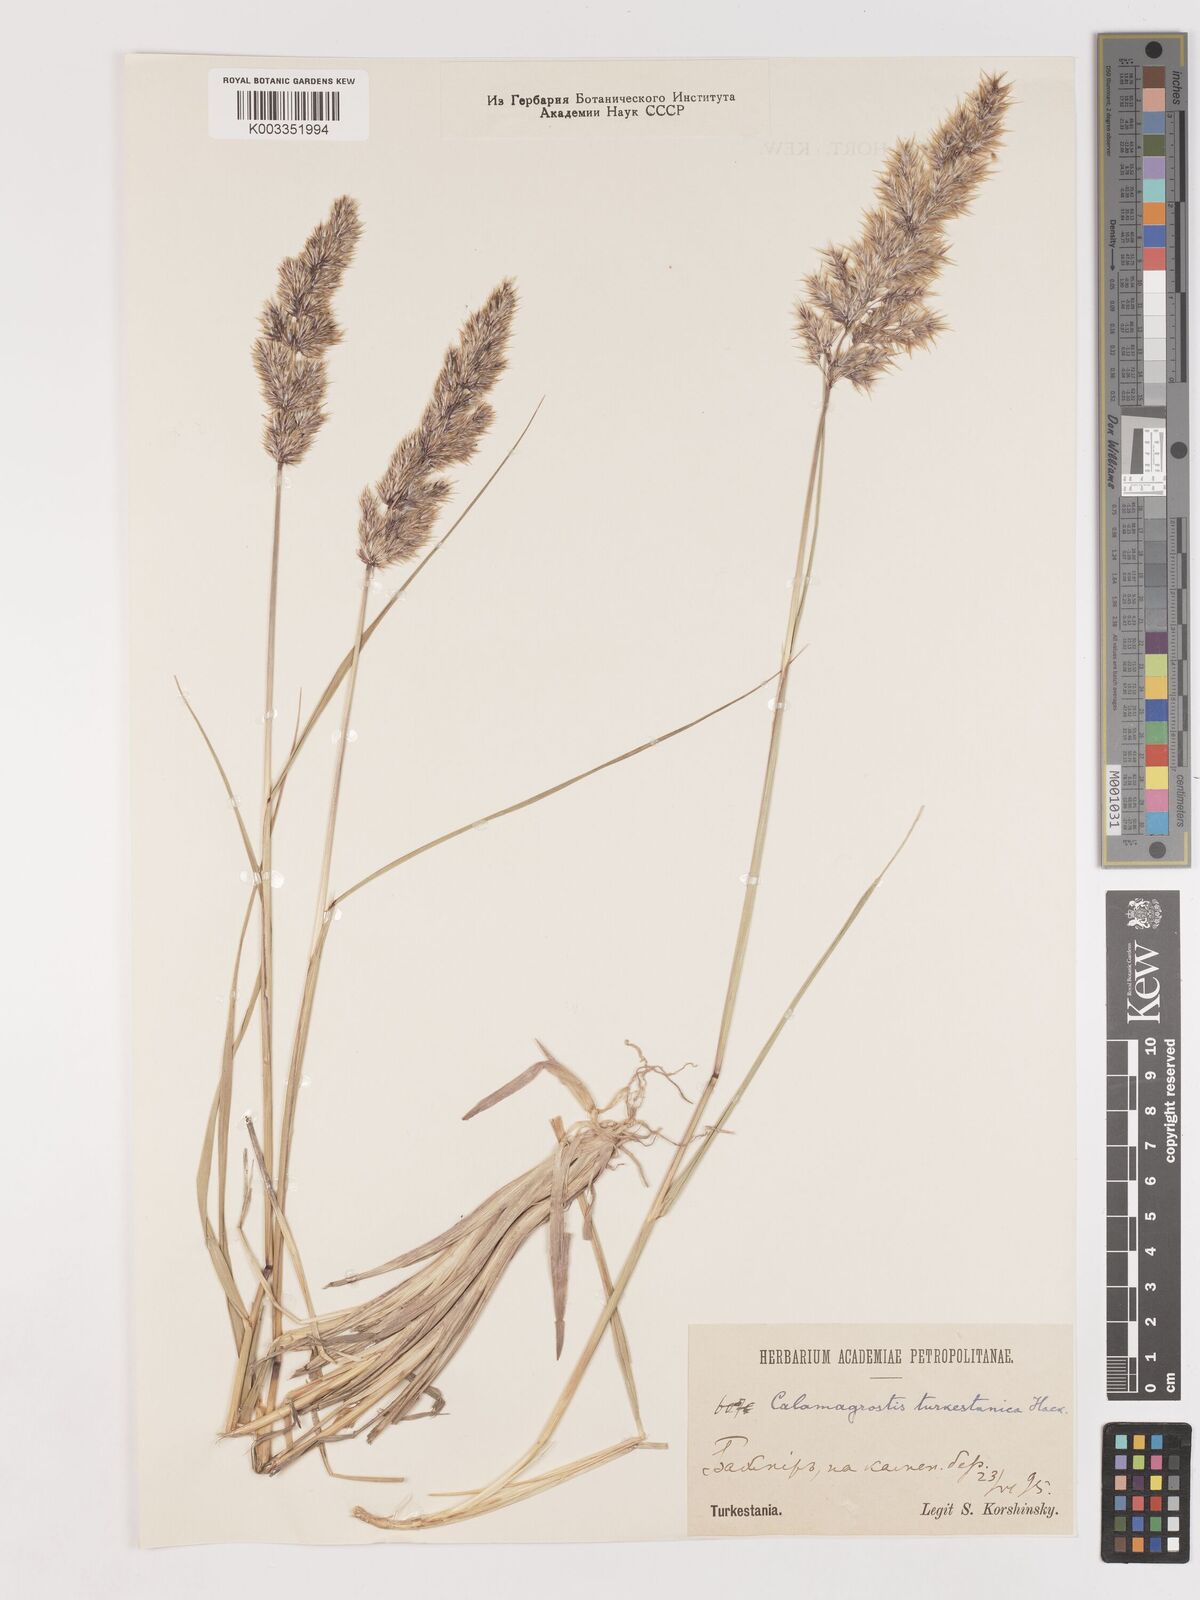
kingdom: Plantae
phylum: Tracheophyta
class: Liliopsida
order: Poales
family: Poaceae
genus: Calamagrostis
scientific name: Calamagrostis turkestanica
